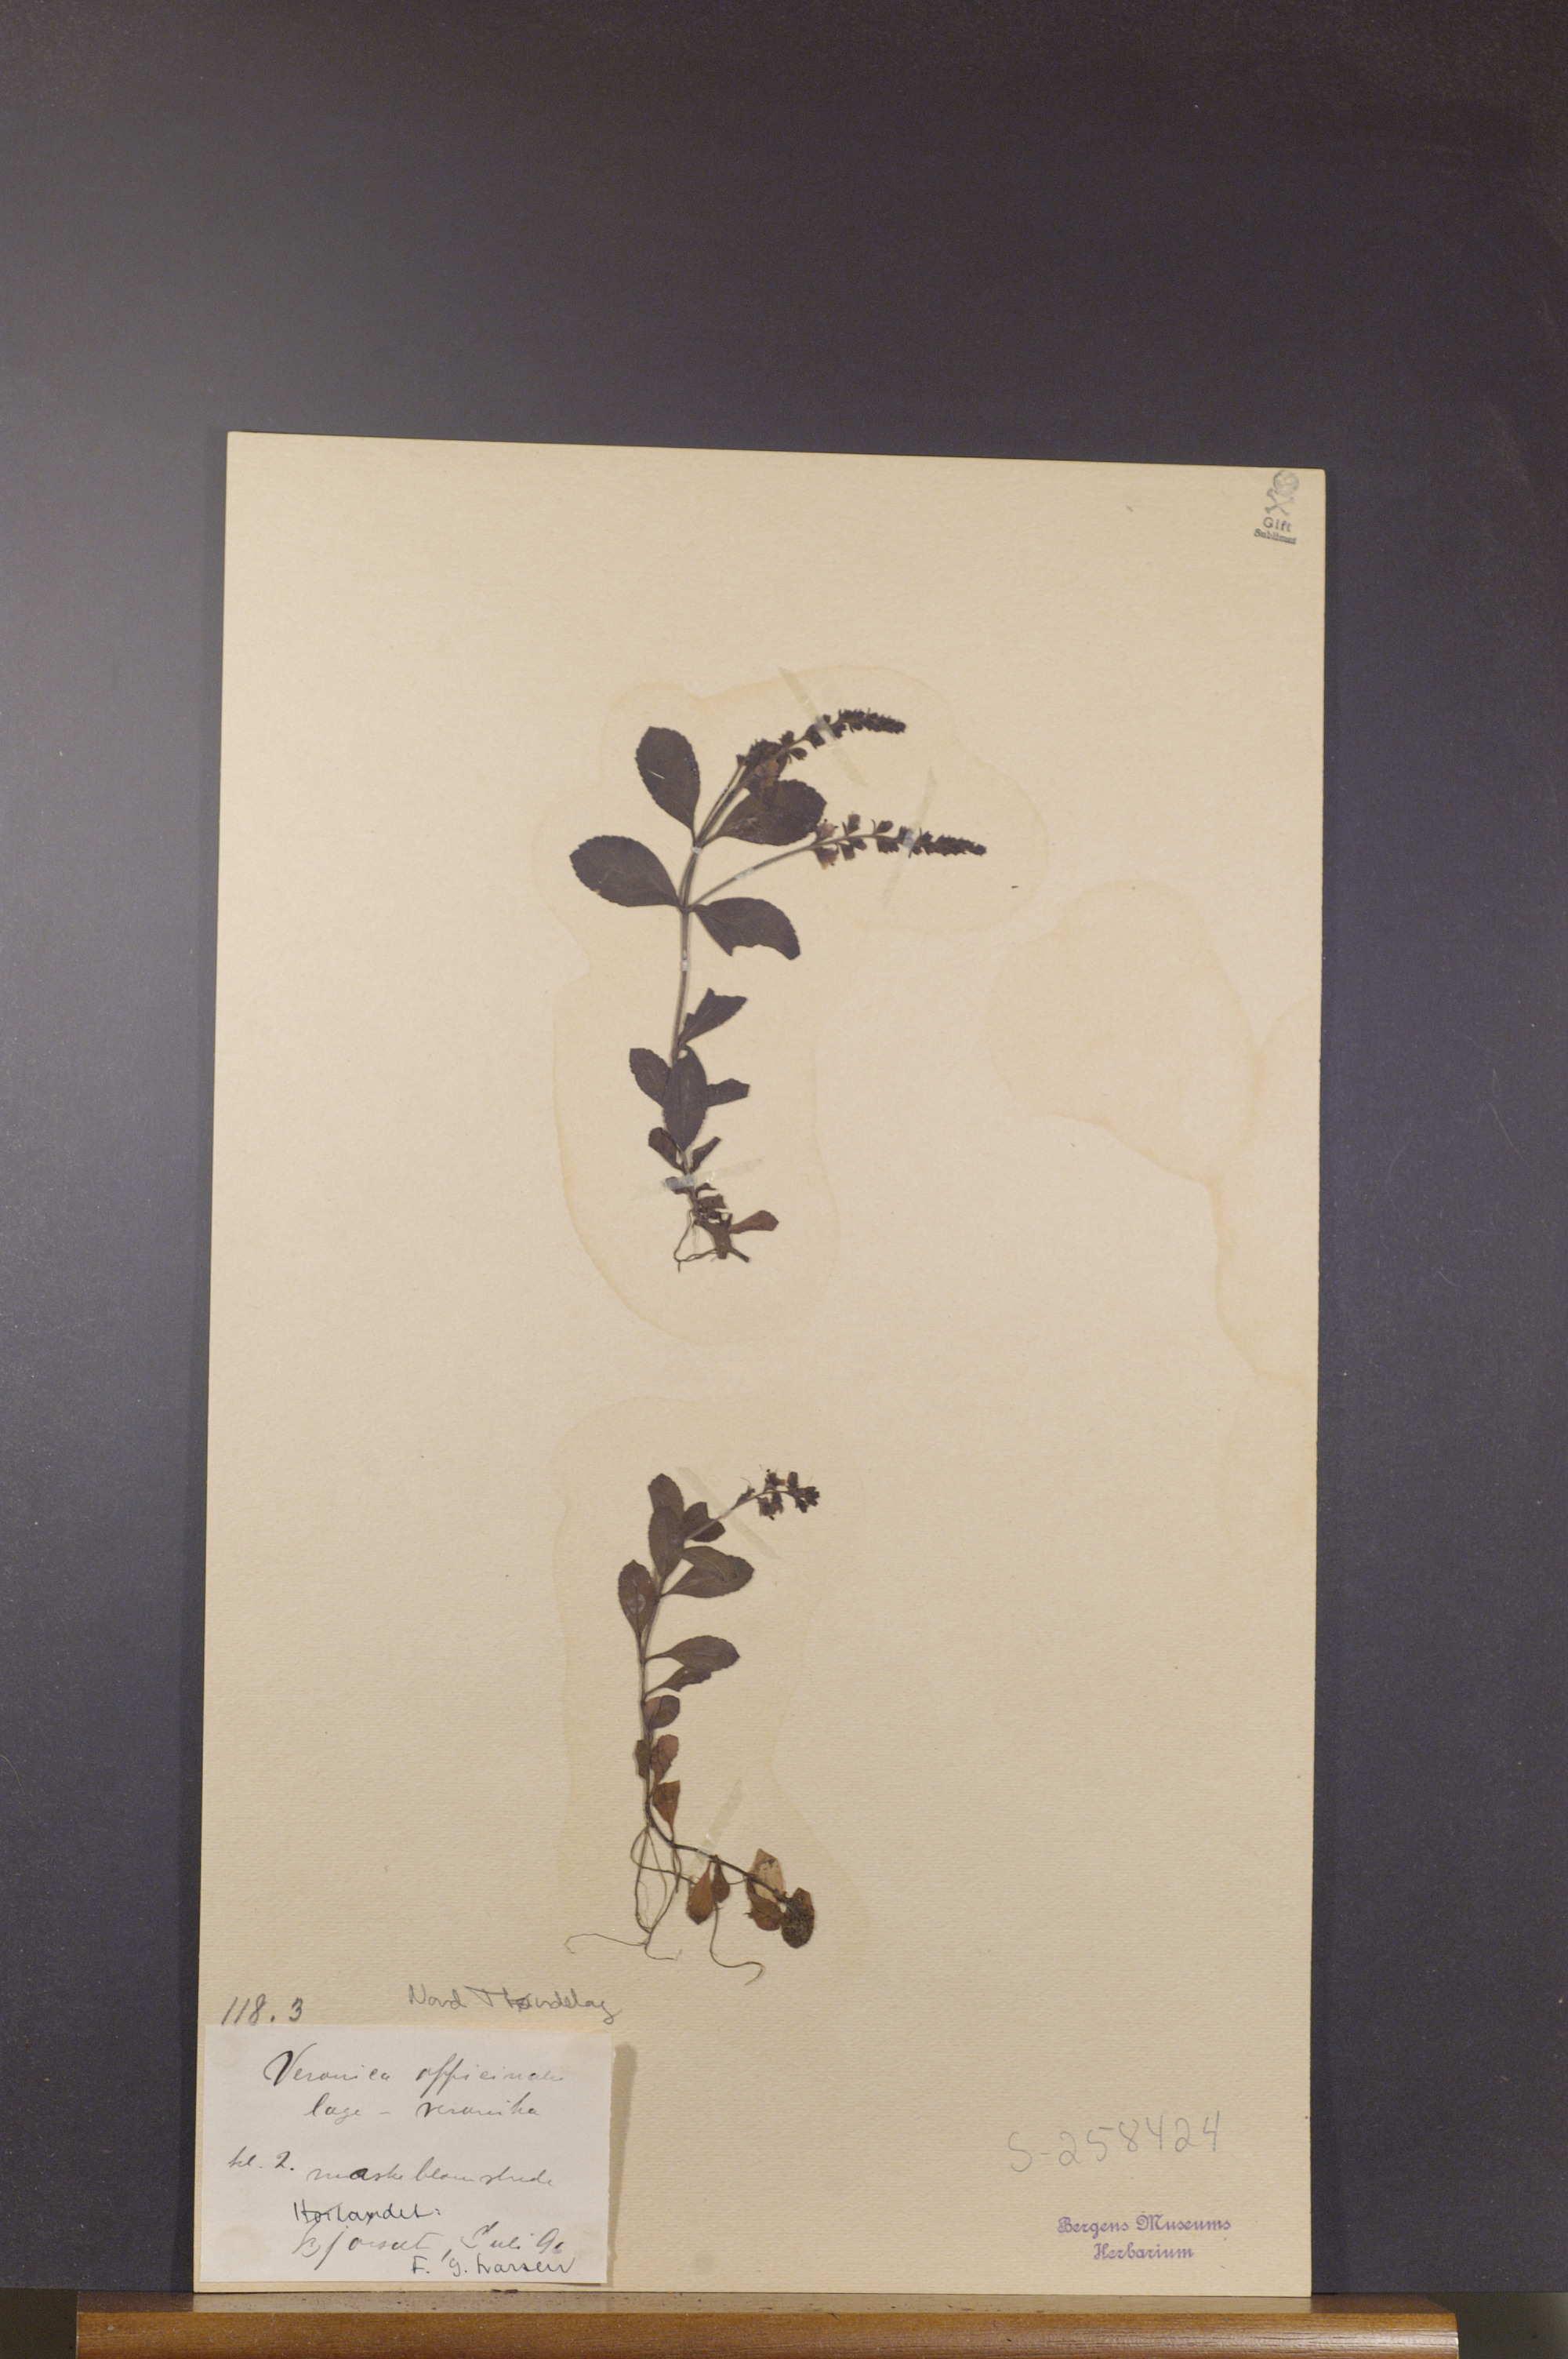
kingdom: Plantae
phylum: Tracheophyta
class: Magnoliopsida
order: Lamiales
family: Plantaginaceae
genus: Veronica
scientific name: Veronica officinalis
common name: Common speedwell
